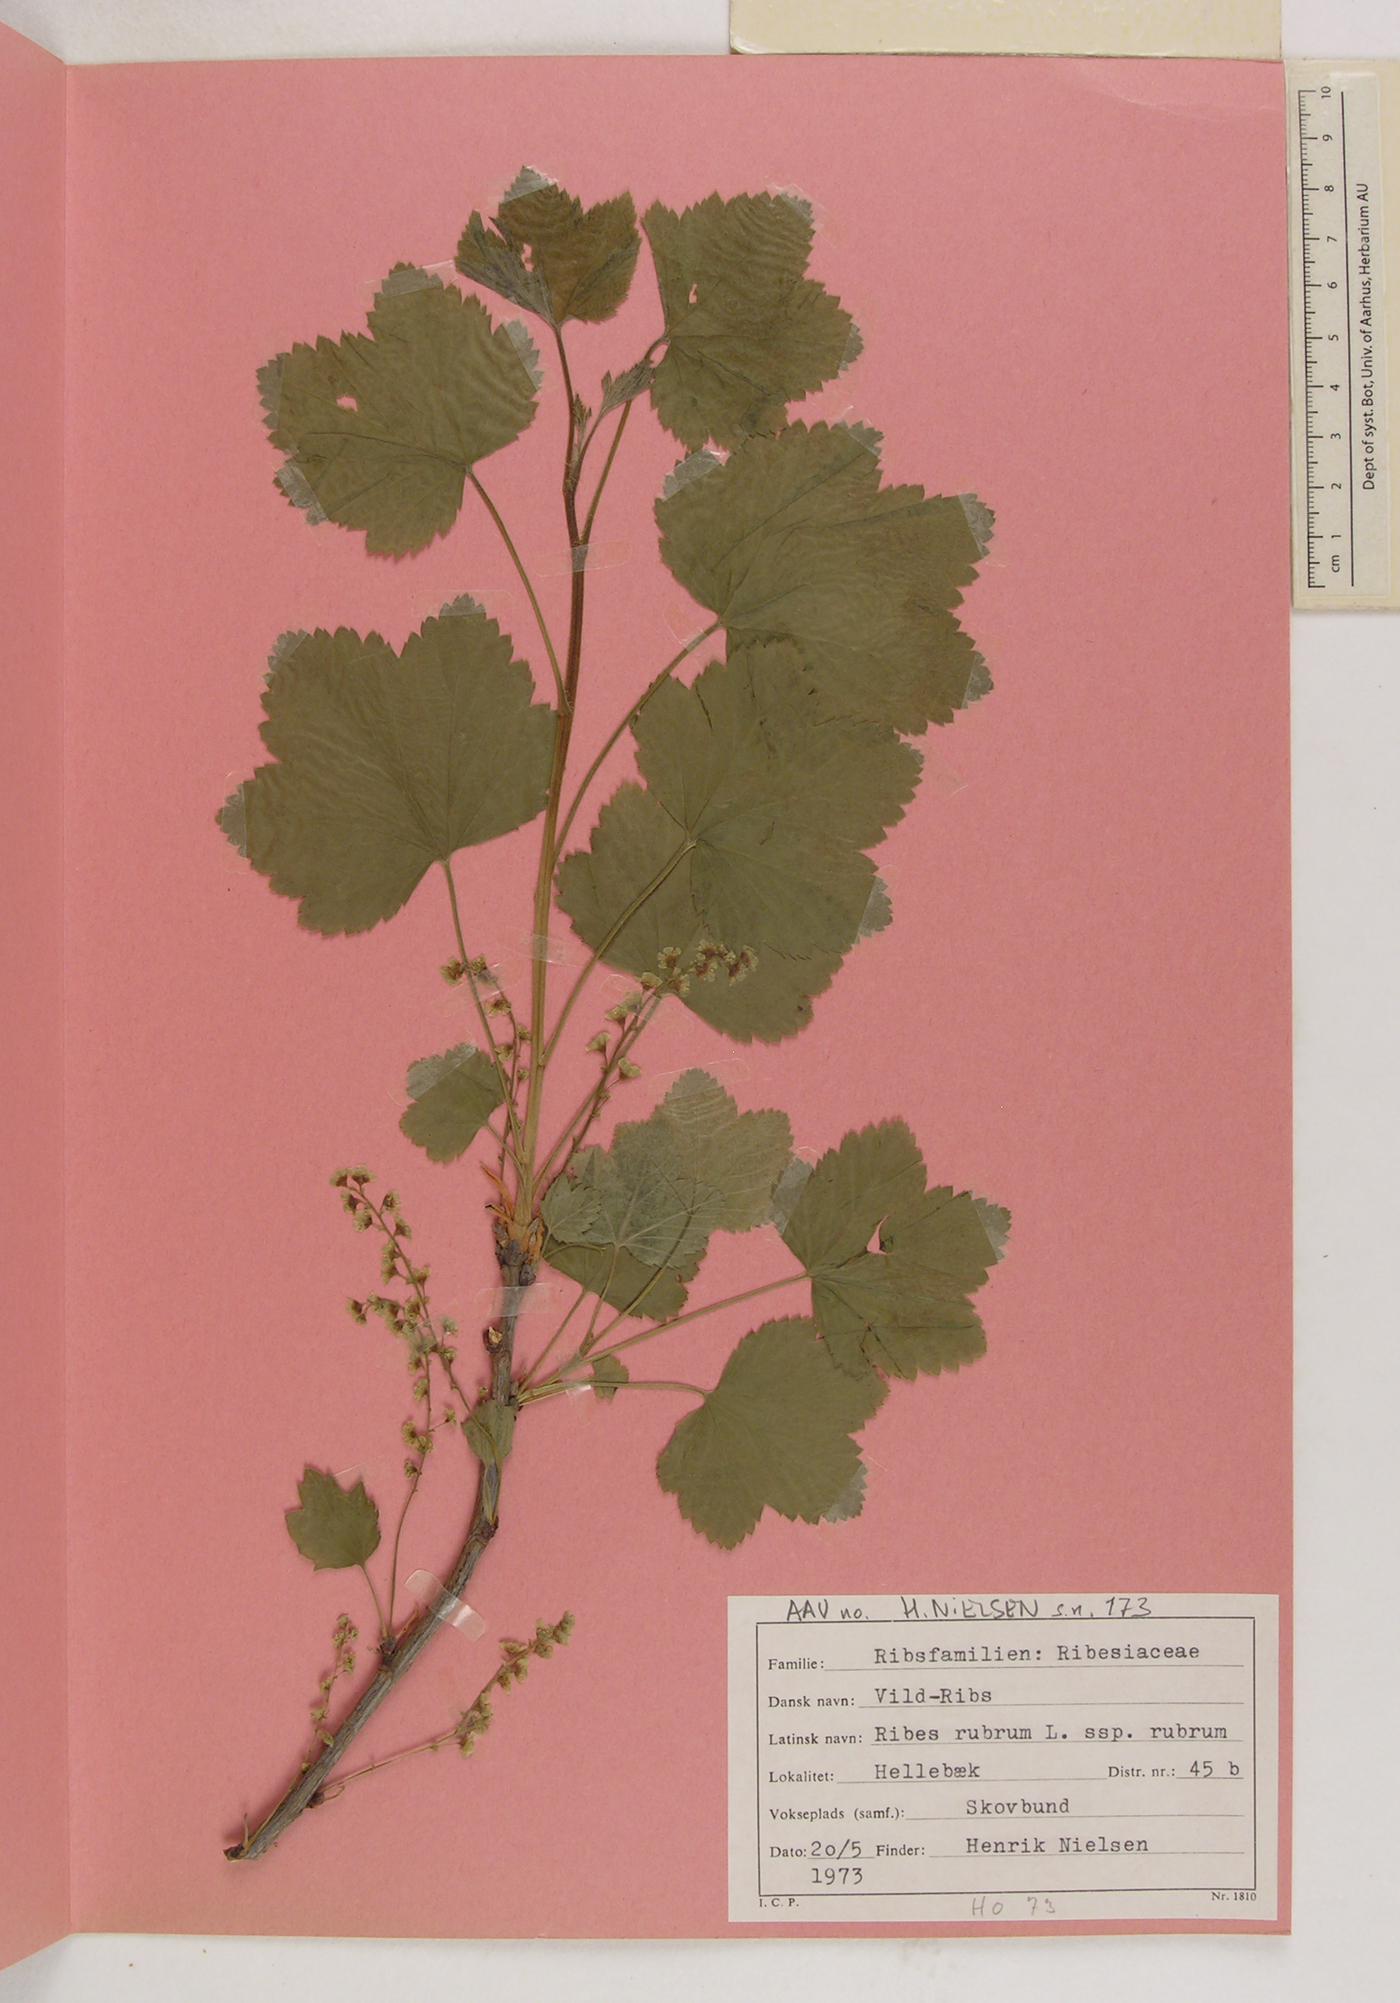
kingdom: Plantae
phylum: Tracheophyta
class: Magnoliopsida
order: Saxifragales
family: Grossulariaceae
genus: Ribes
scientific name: Ribes rubrum
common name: Red currant
